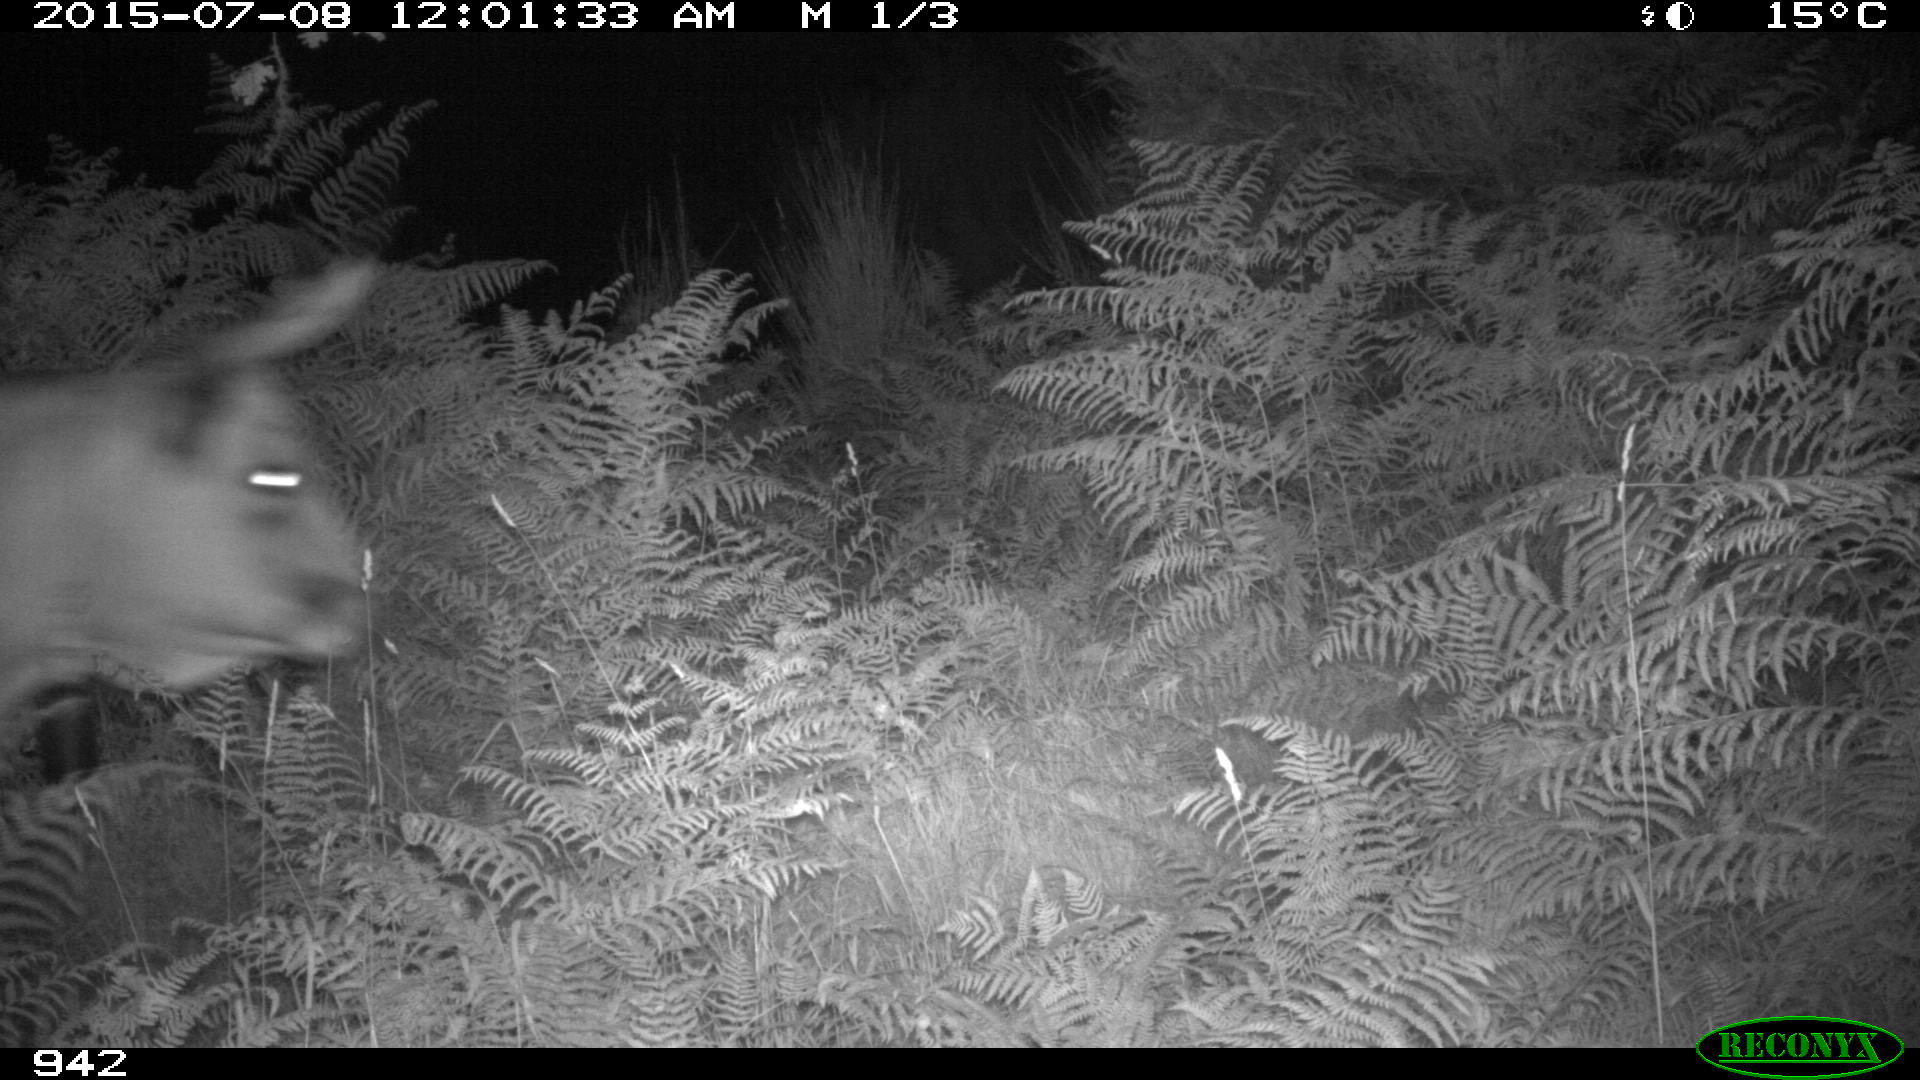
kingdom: Animalia
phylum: Chordata
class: Mammalia
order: Artiodactyla
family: Bovidae
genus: Bos
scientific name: Bos taurus
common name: Domesticated cattle
